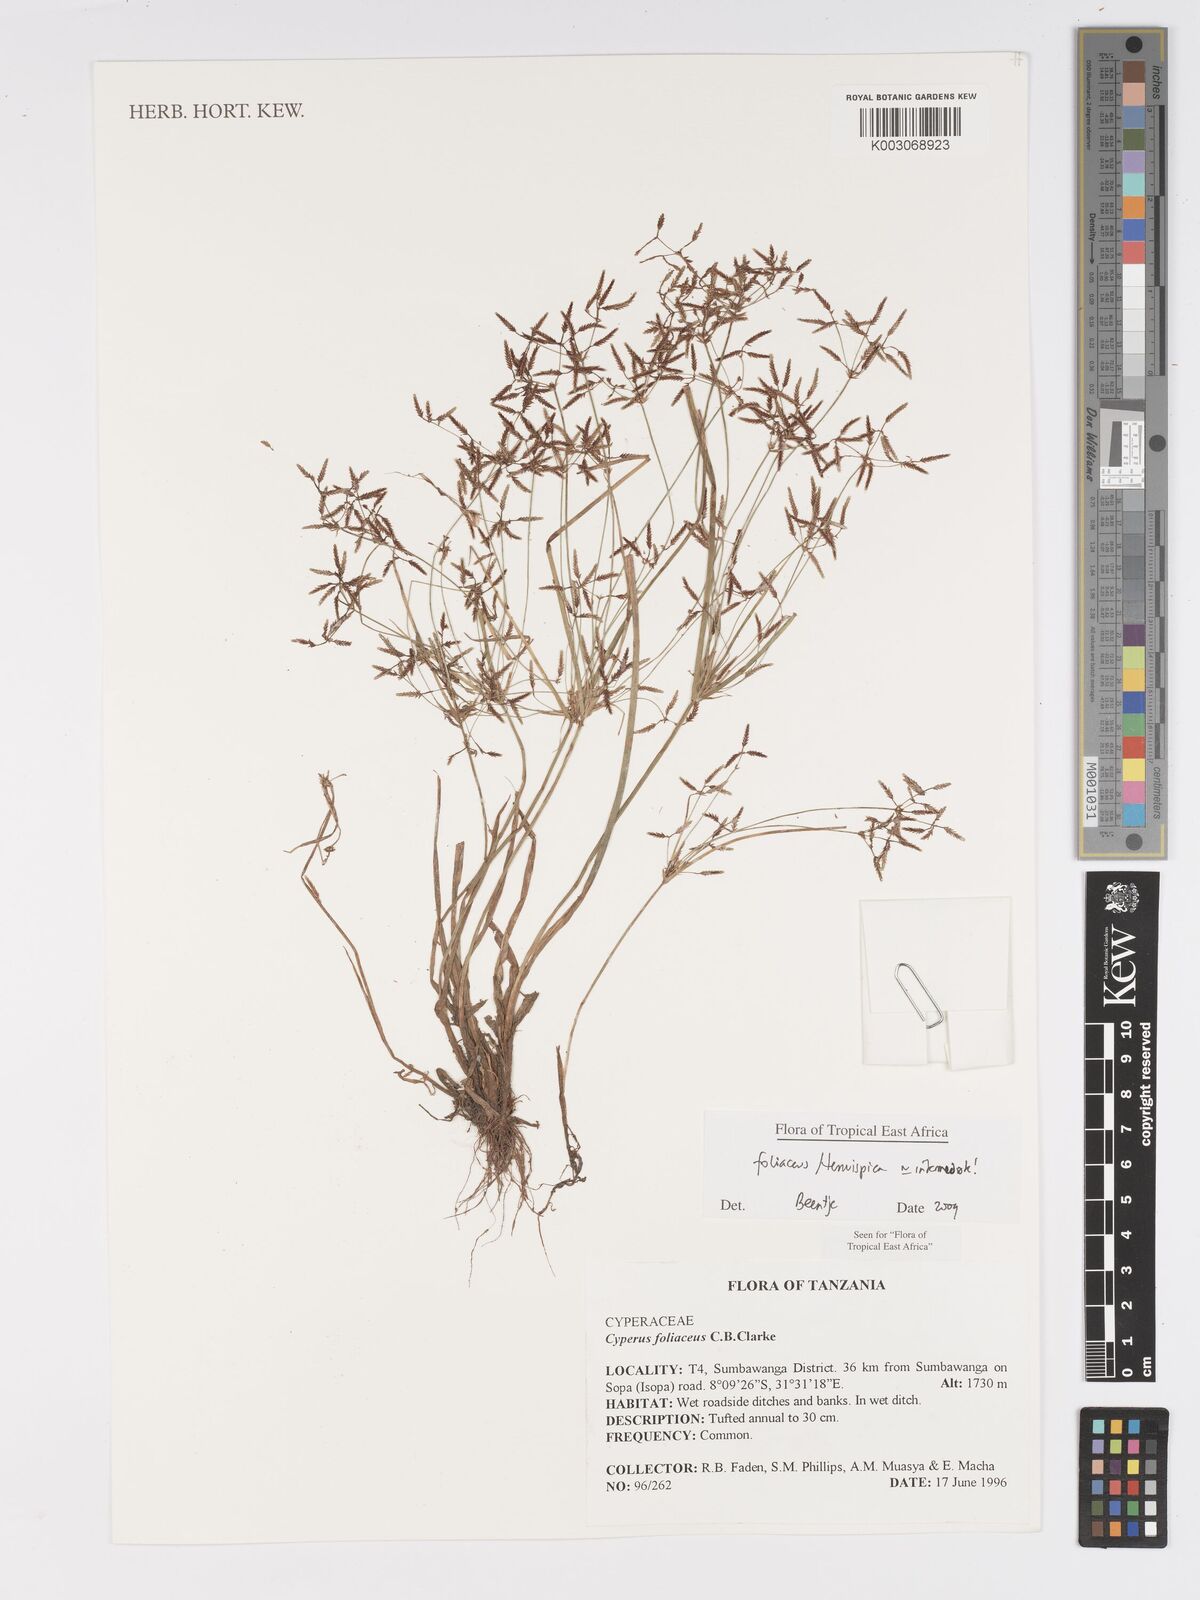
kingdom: Plantae
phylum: Tracheophyta
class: Liliopsida
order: Poales
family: Cyperaceae
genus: Cyperus
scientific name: Cyperus foliaceus
